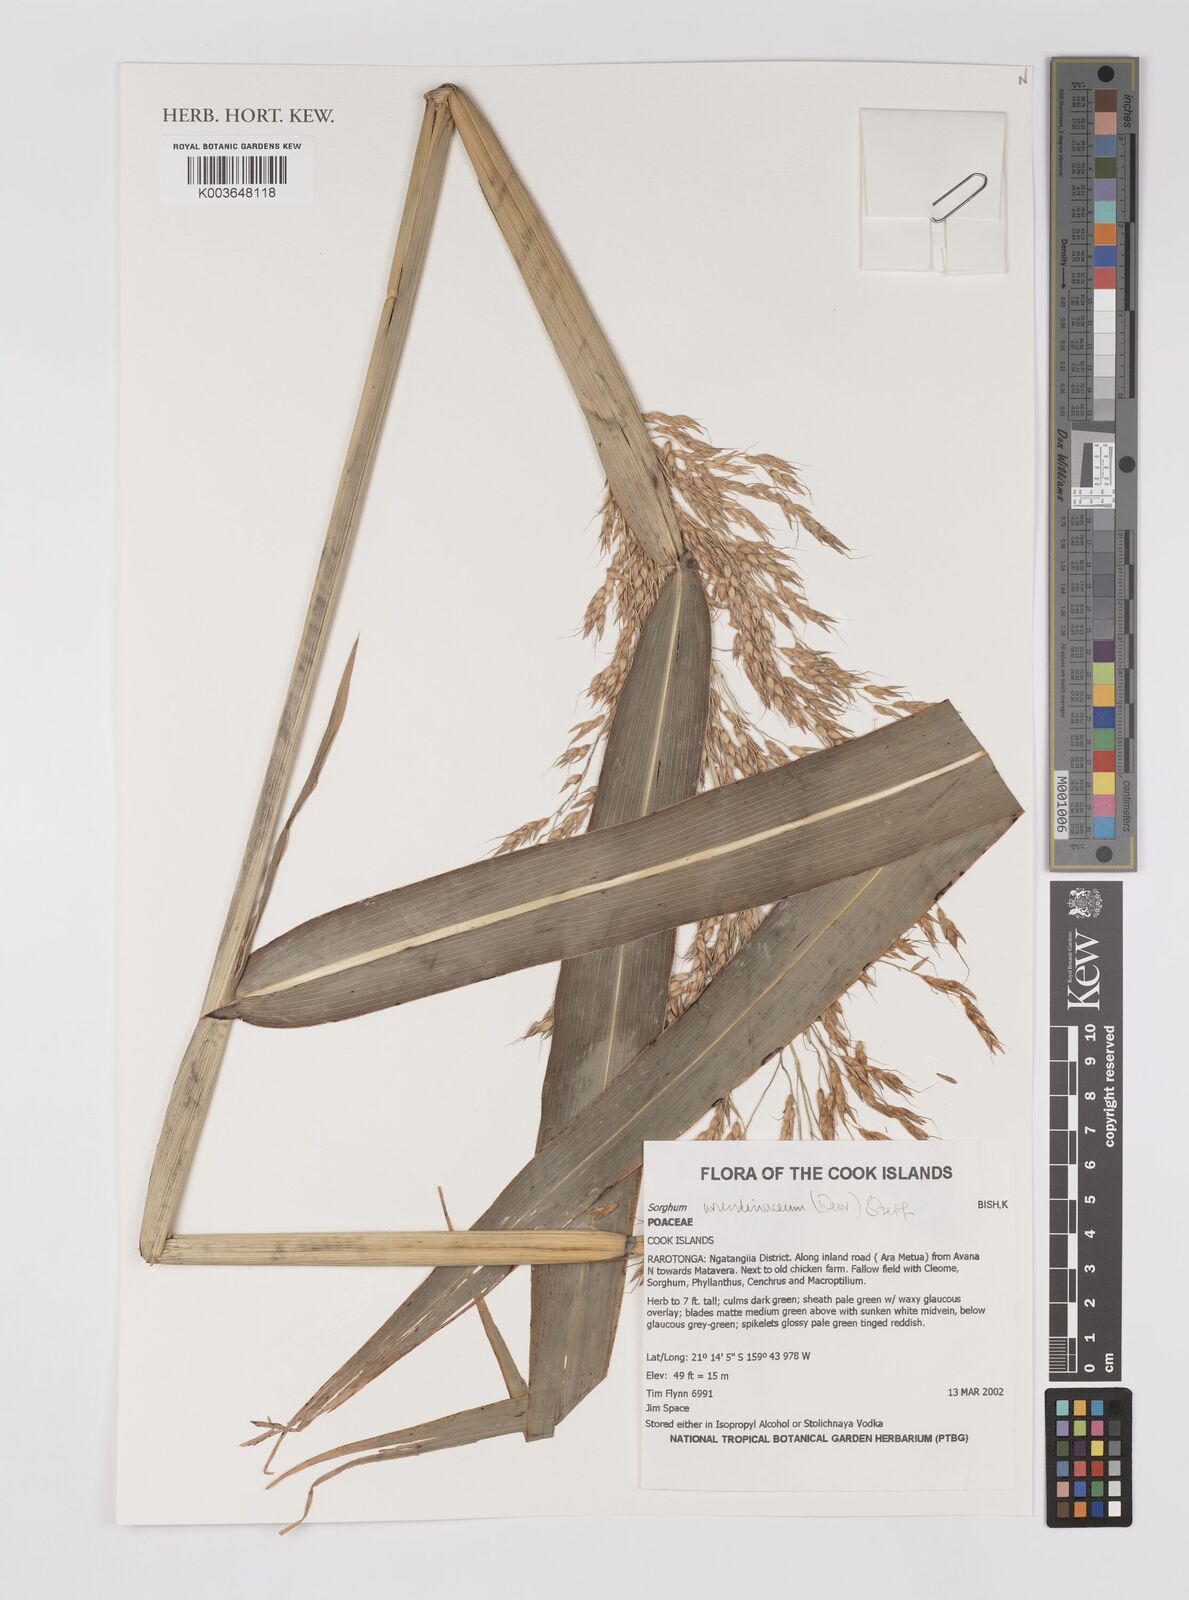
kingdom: Plantae
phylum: Tracheophyta
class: Liliopsida
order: Poales
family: Poaceae
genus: Sorghum
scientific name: Sorghum arundinaceum
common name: Sorghum
